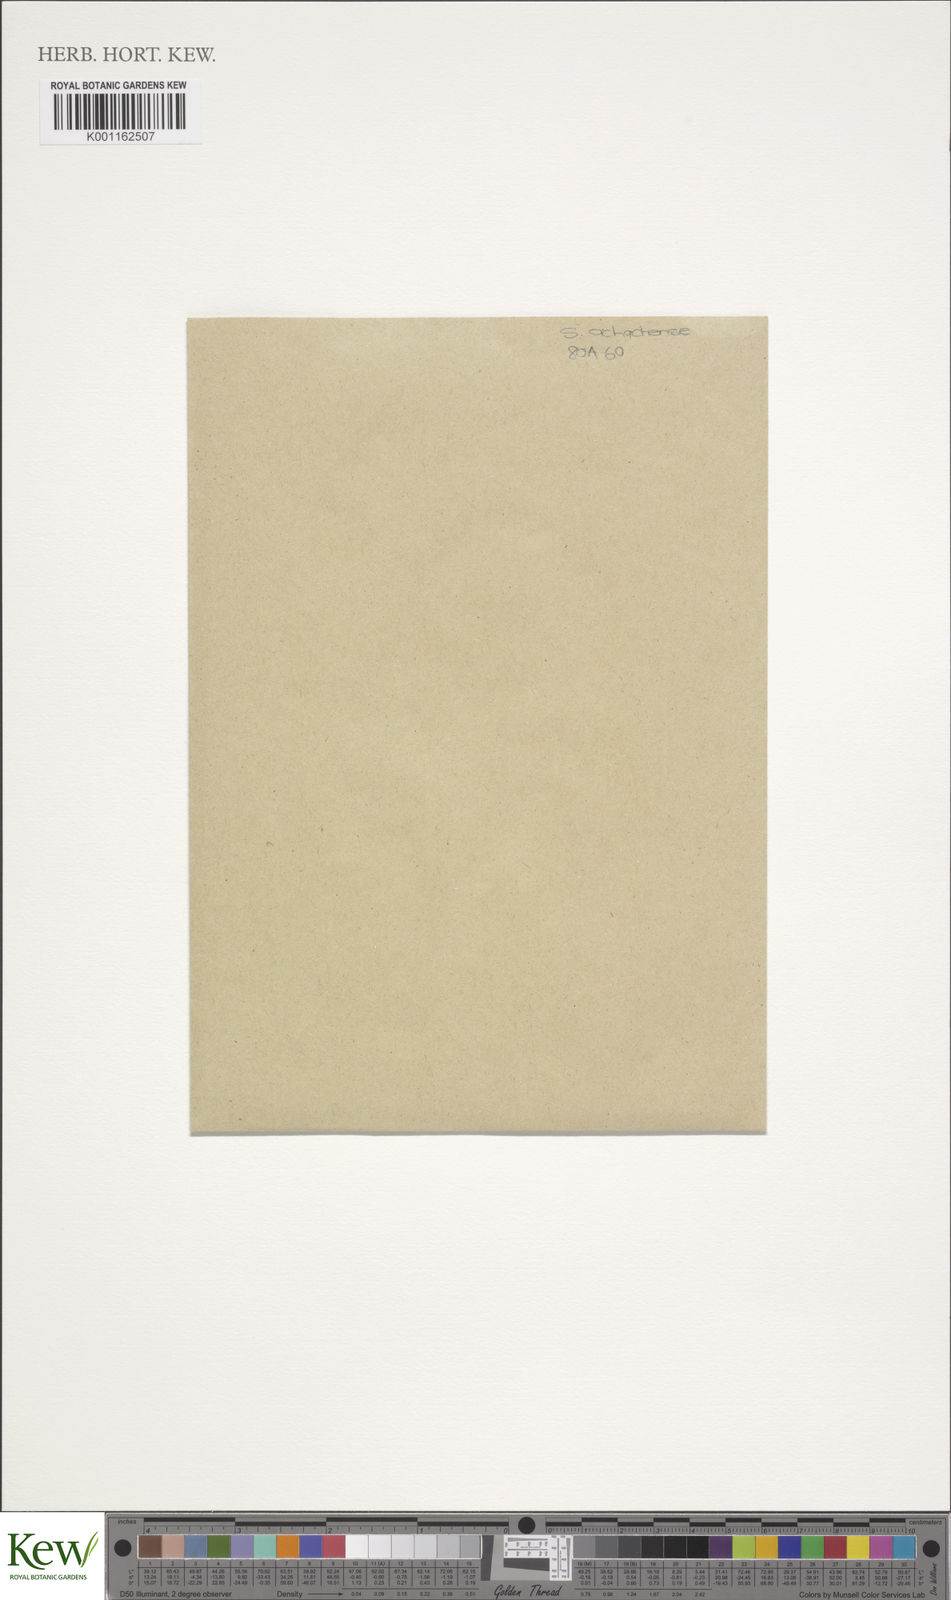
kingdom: Plantae
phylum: Tracheophyta
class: Magnoliopsida
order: Solanales
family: Solanaceae
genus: Solanum
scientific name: Solanum
